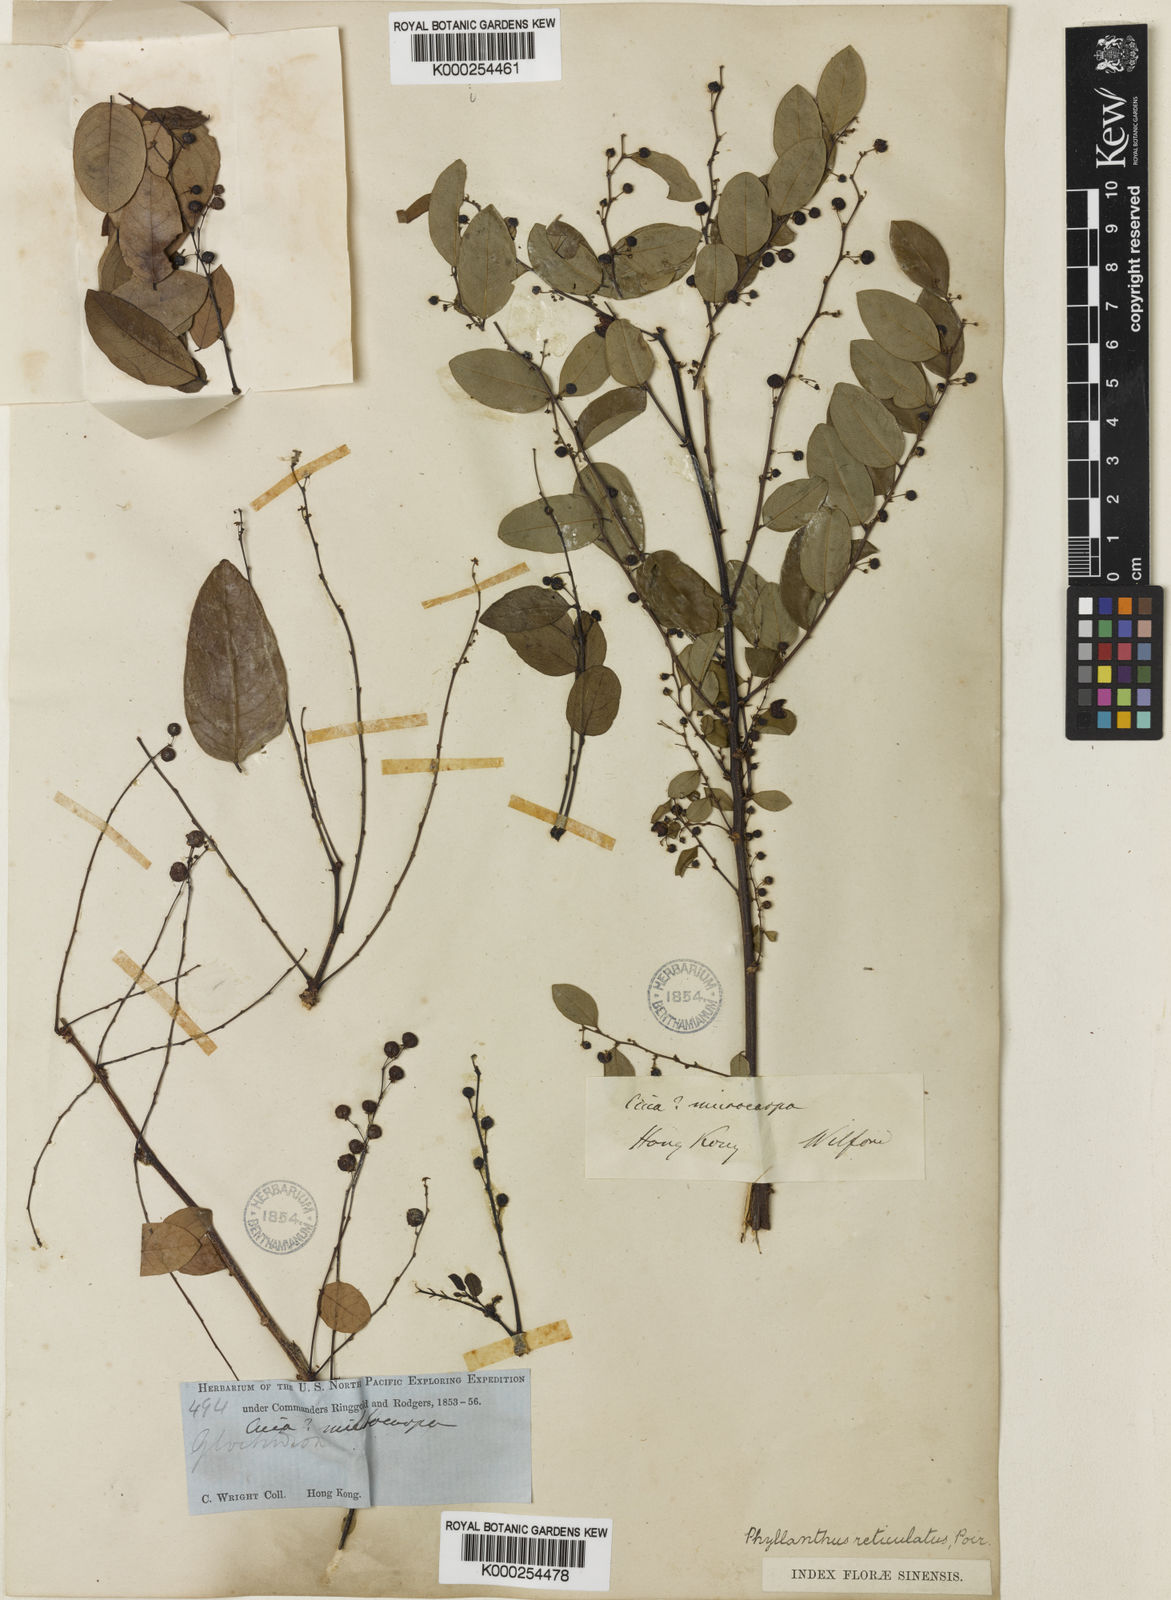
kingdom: Plantae
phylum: Tracheophyta
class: Magnoliopsida
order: Malpighiales
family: Phyllanthaceae
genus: Phyllanthus
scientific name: Phyllanthus
